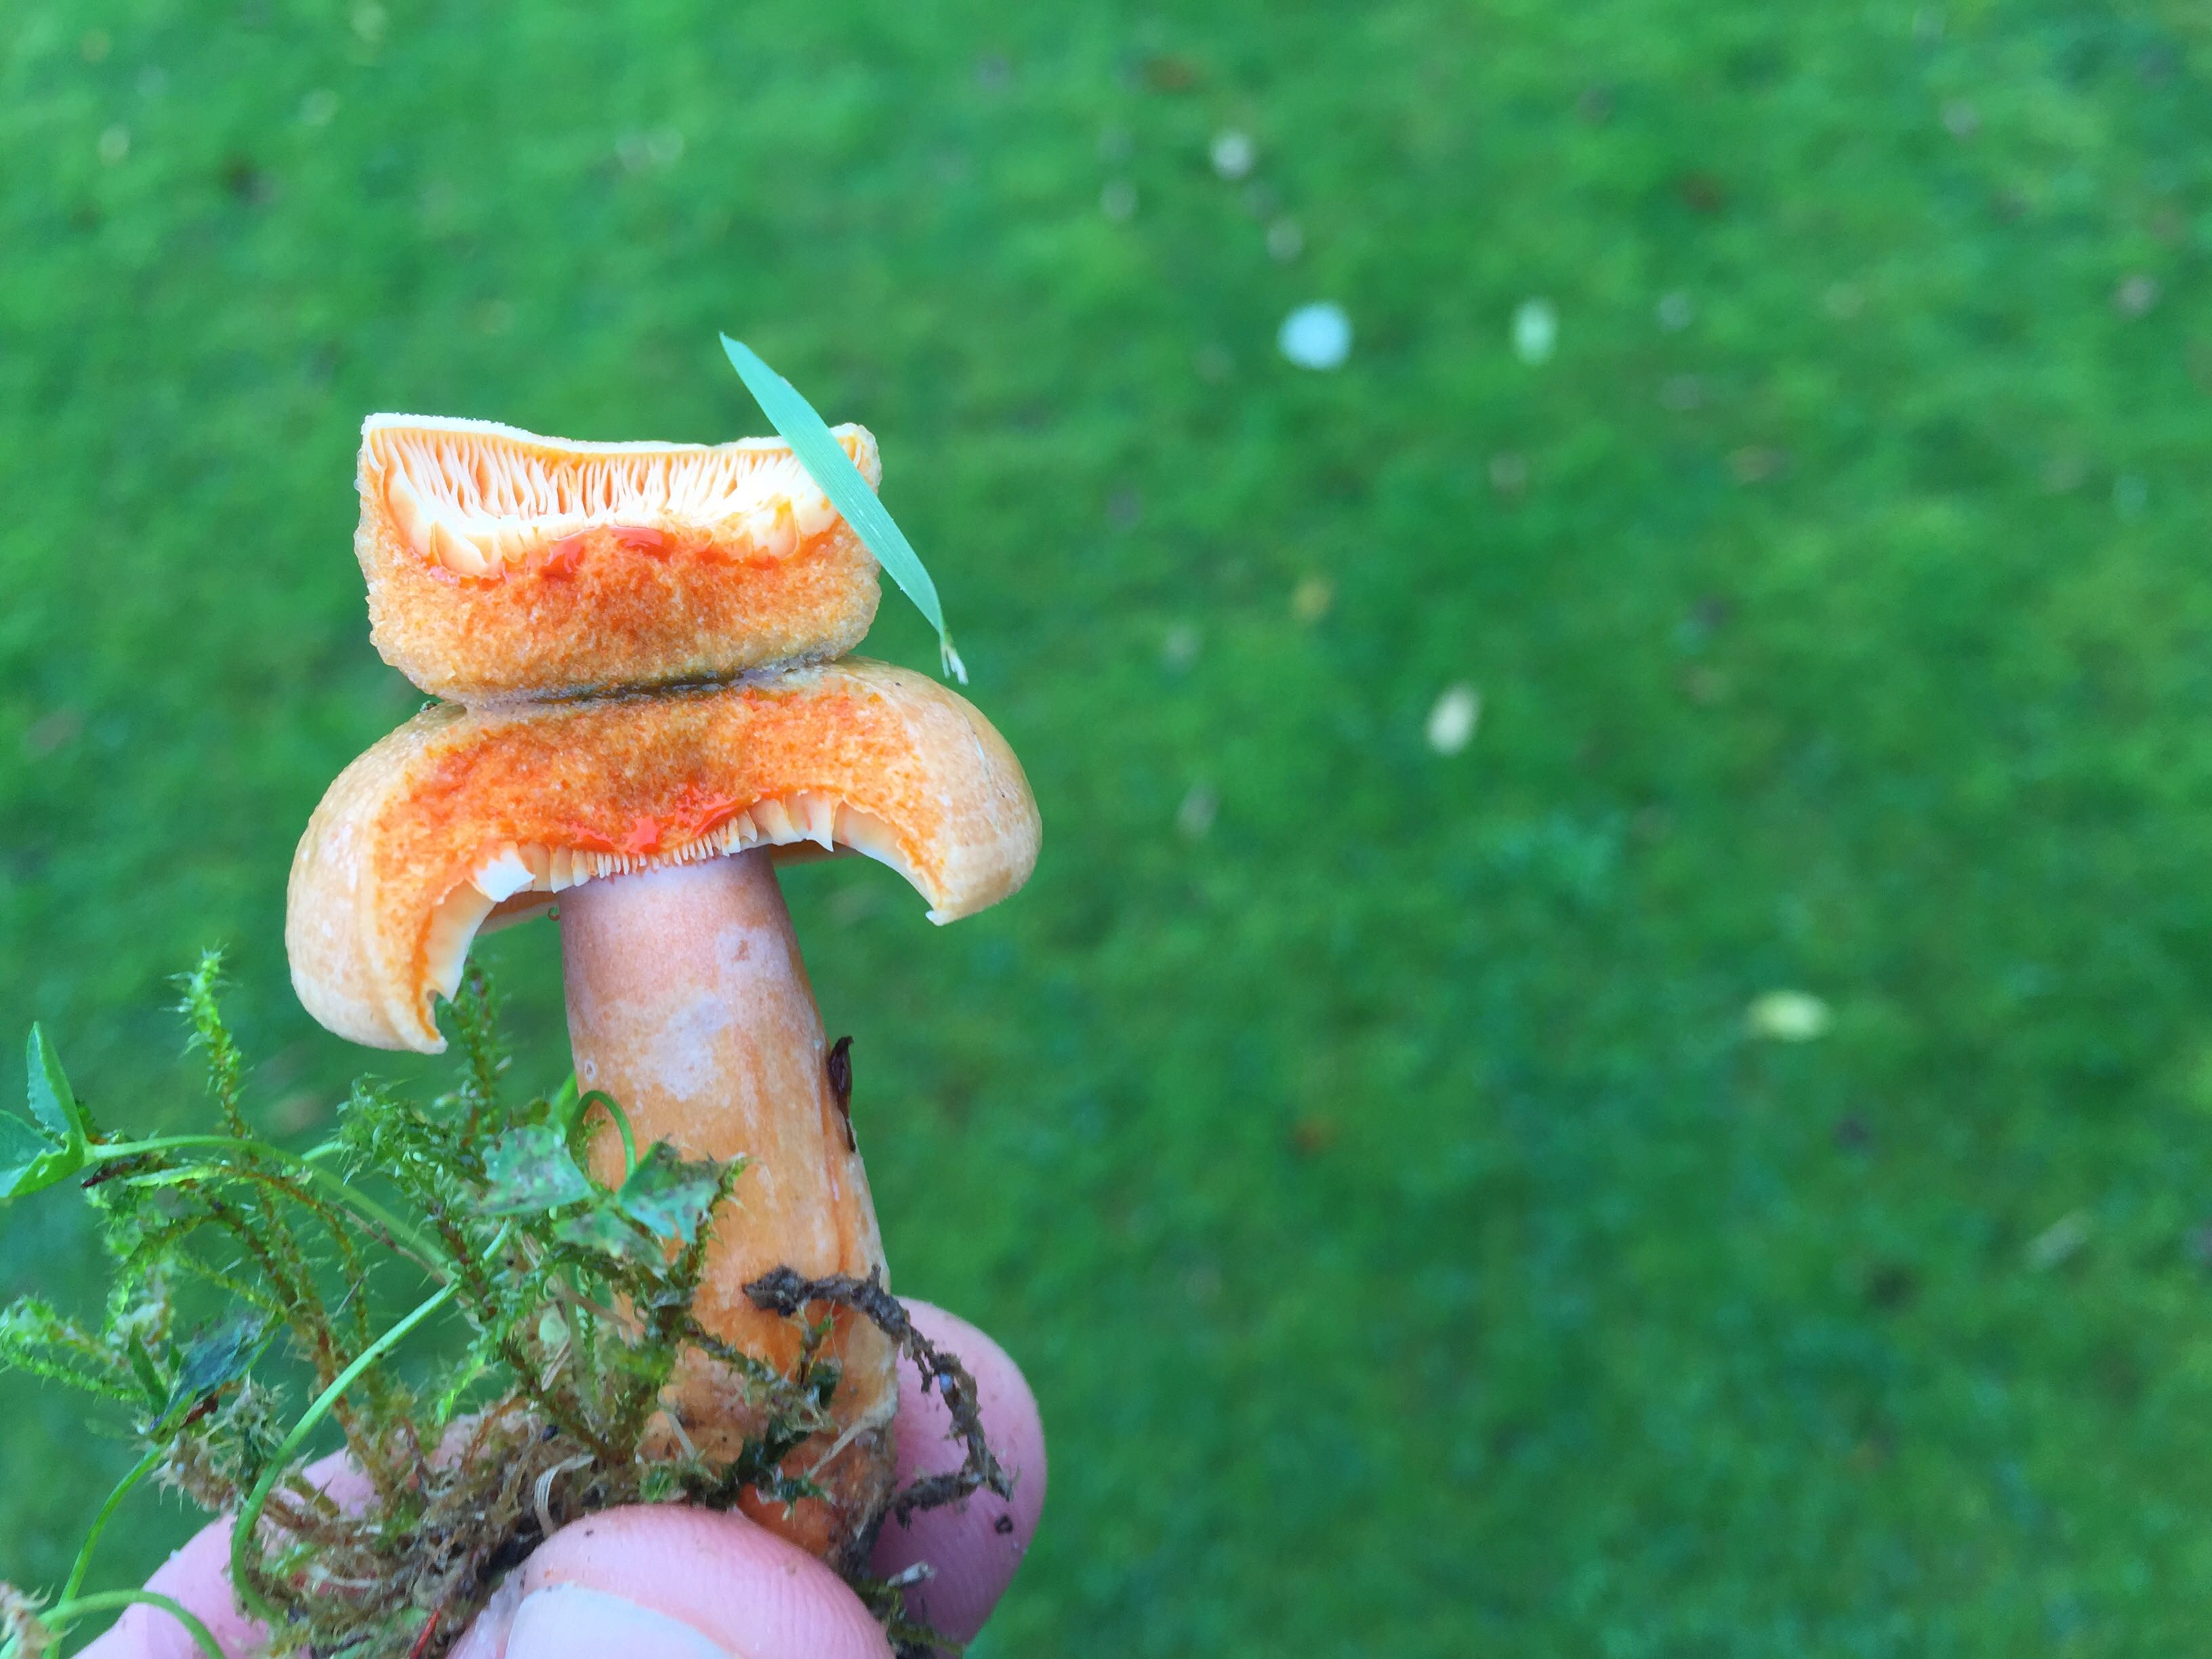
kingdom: Fungi
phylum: Basidiomycota
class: Agaricomycetes
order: Russulales
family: Russulaceae
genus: Lactarius
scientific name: Lactarius deterrimus
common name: gran-mælkehat
